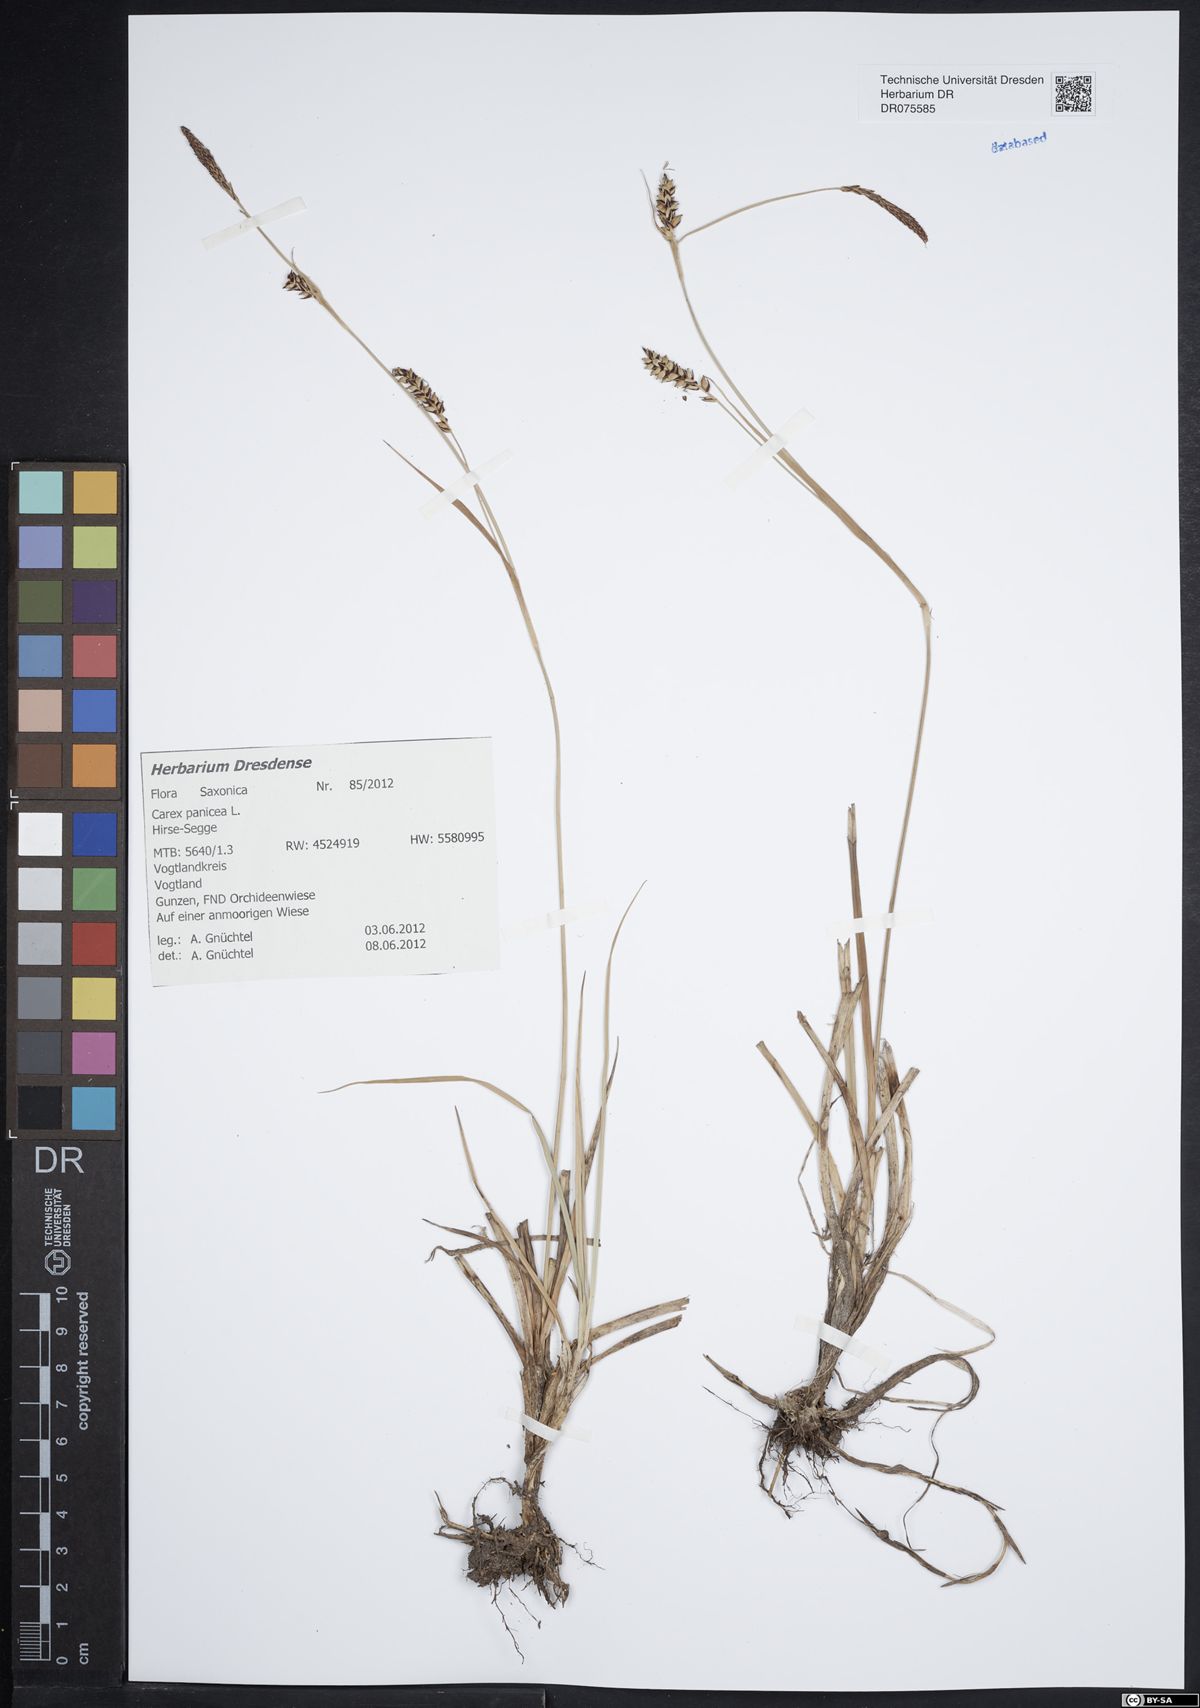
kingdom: Plantae
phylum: Tracheophyta
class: Liliopsida
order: Poales
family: Cyperaceae
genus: Carex
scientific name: Carex panicea
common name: Carnation sedge
